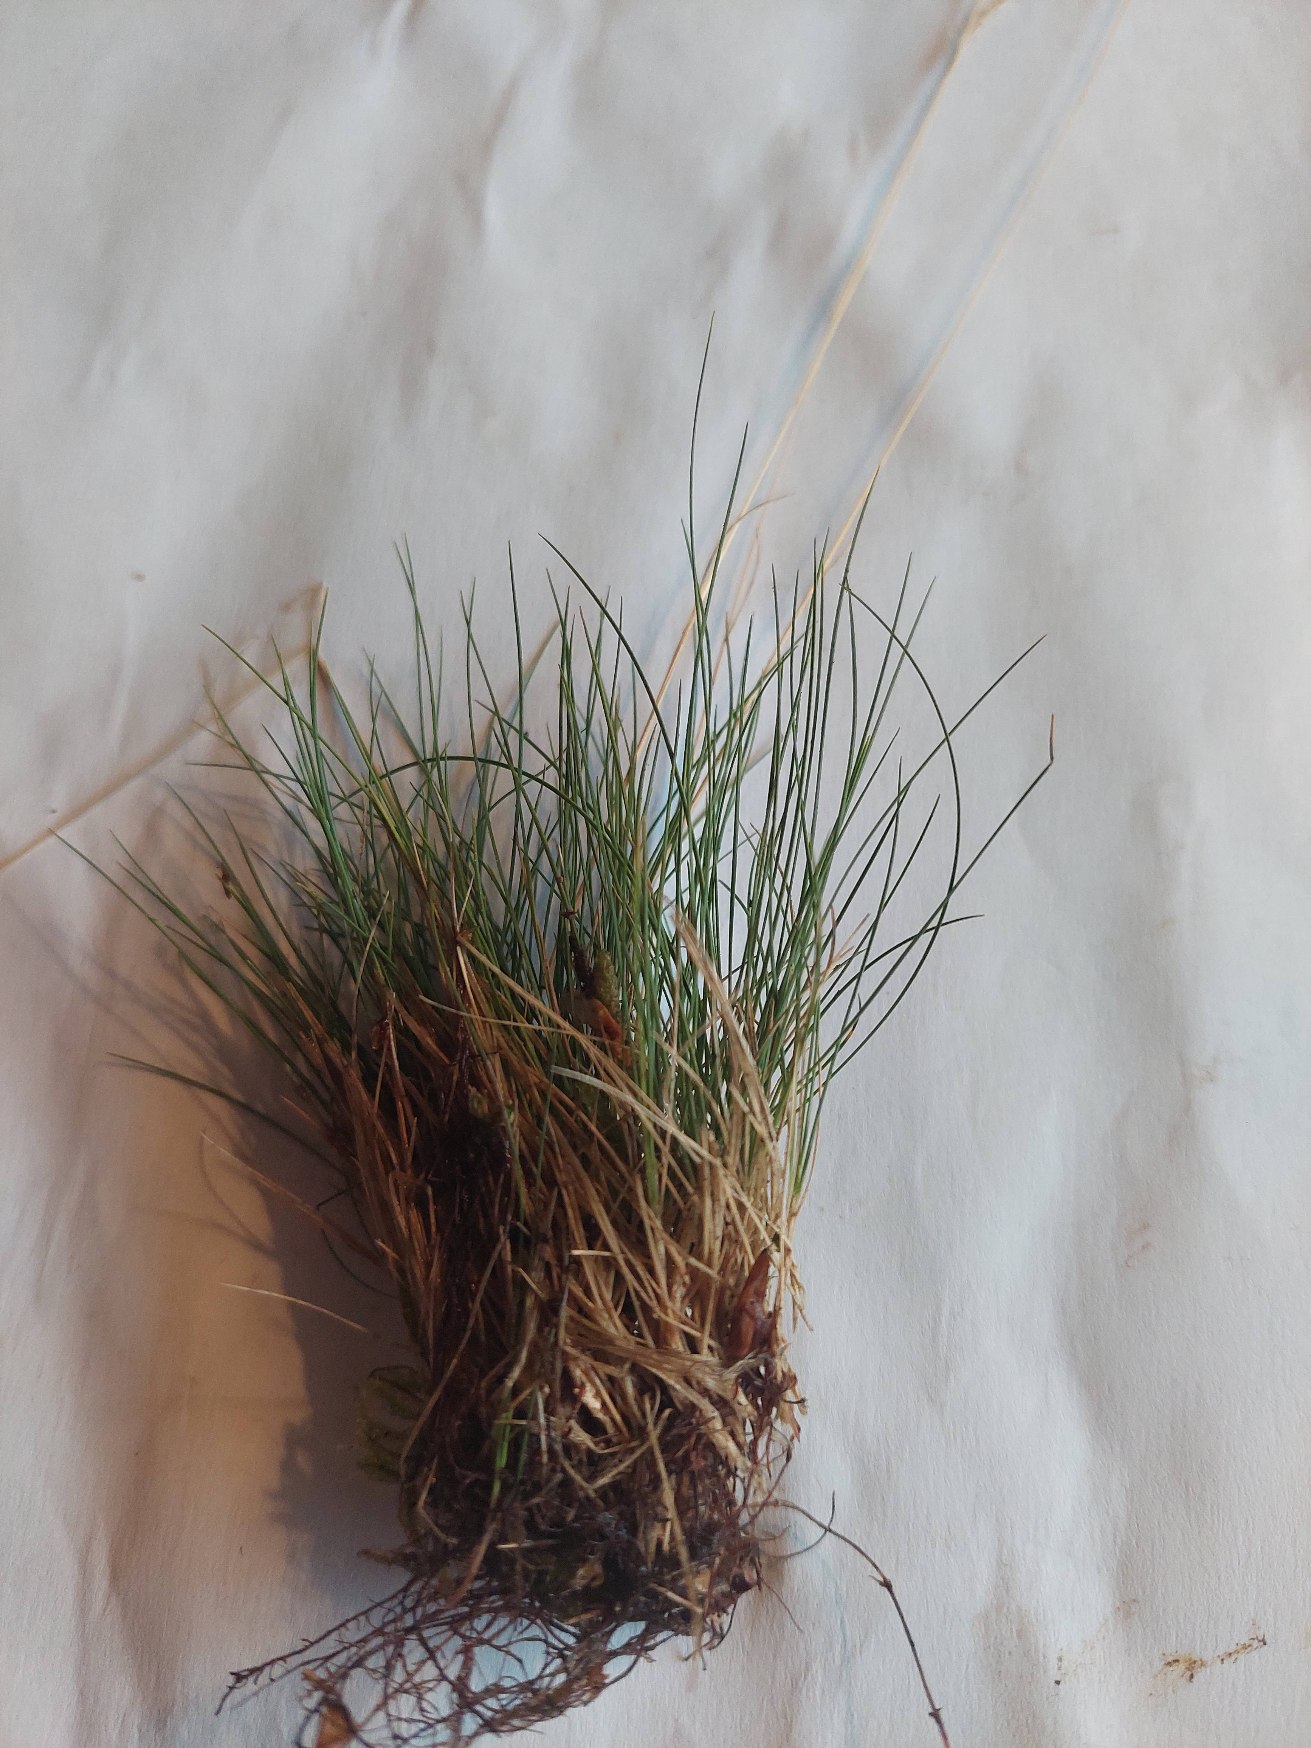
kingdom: Plantae
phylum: Tracheophyta
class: Liliopsida
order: Poales
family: Poaceae
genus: Festuca
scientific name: Festuca ovina
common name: Fåre-svingel
